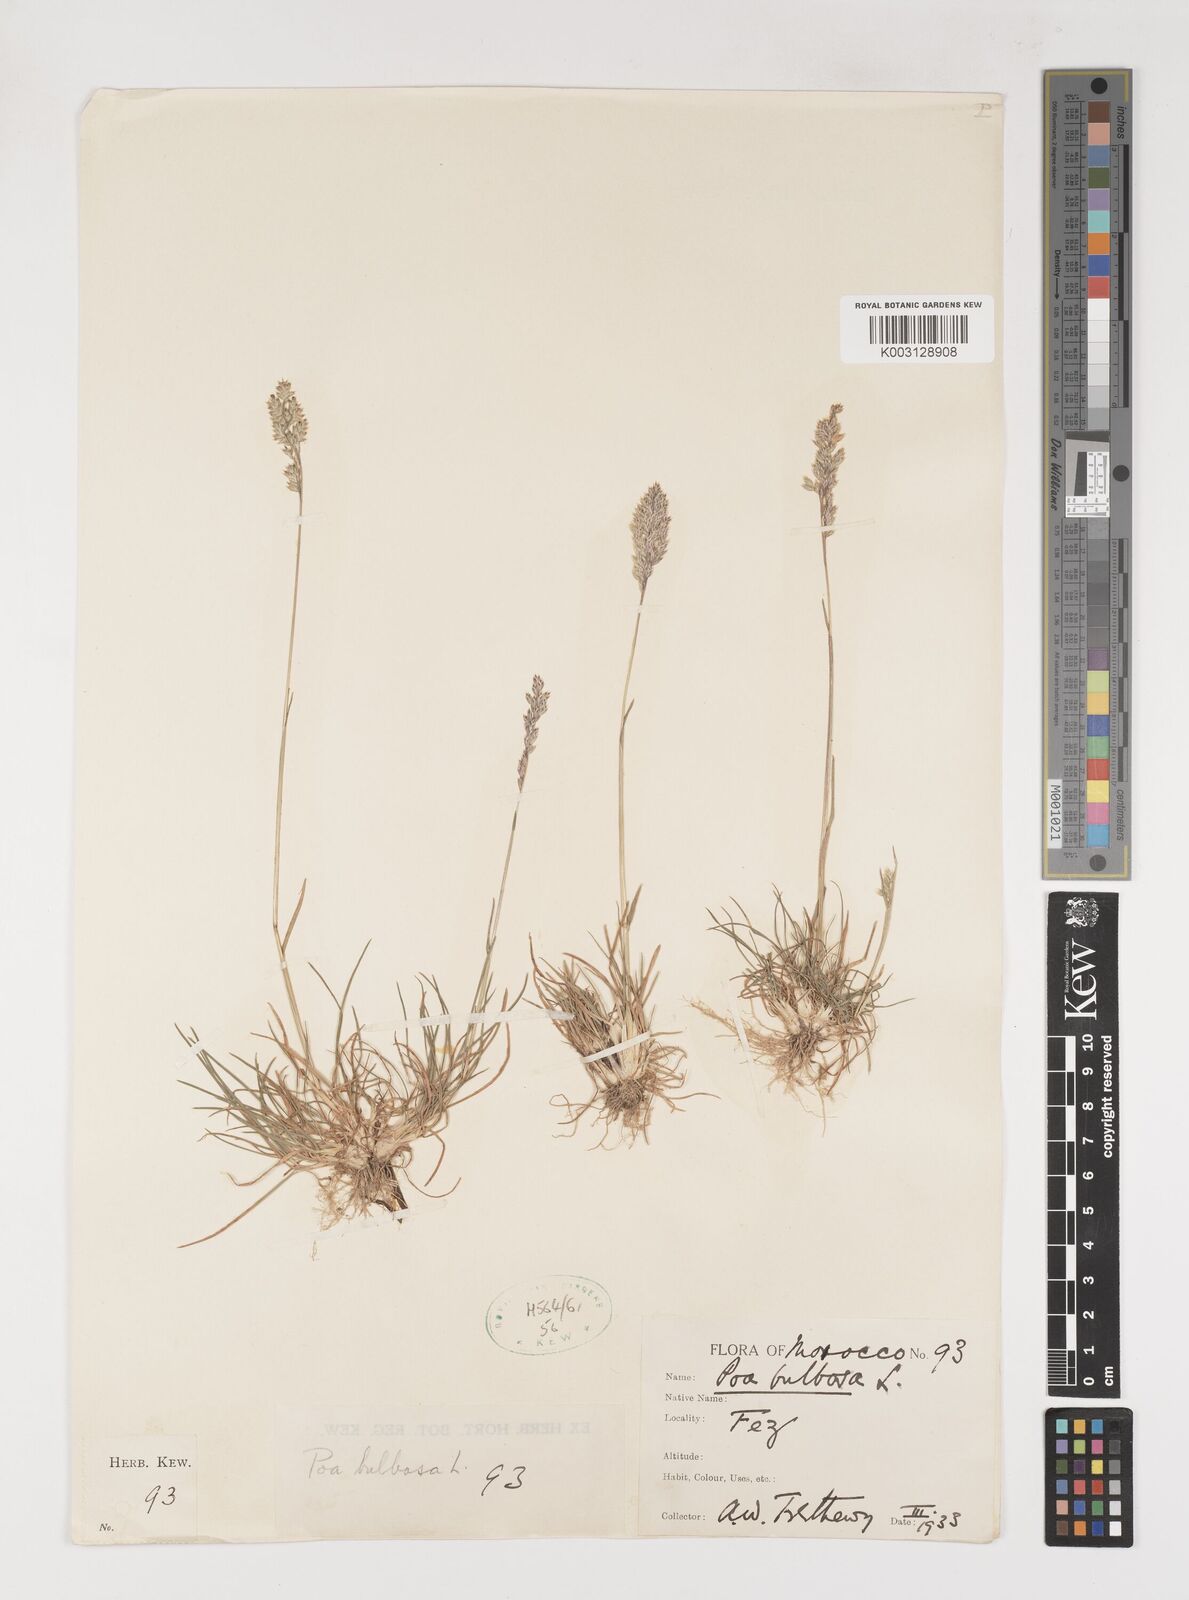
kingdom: Plantae
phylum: Tracheophyta
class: Liliopsida
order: Poales
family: Poaceae
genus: Poa
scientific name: Poa bulbosa
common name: Bulbous bluegrass
